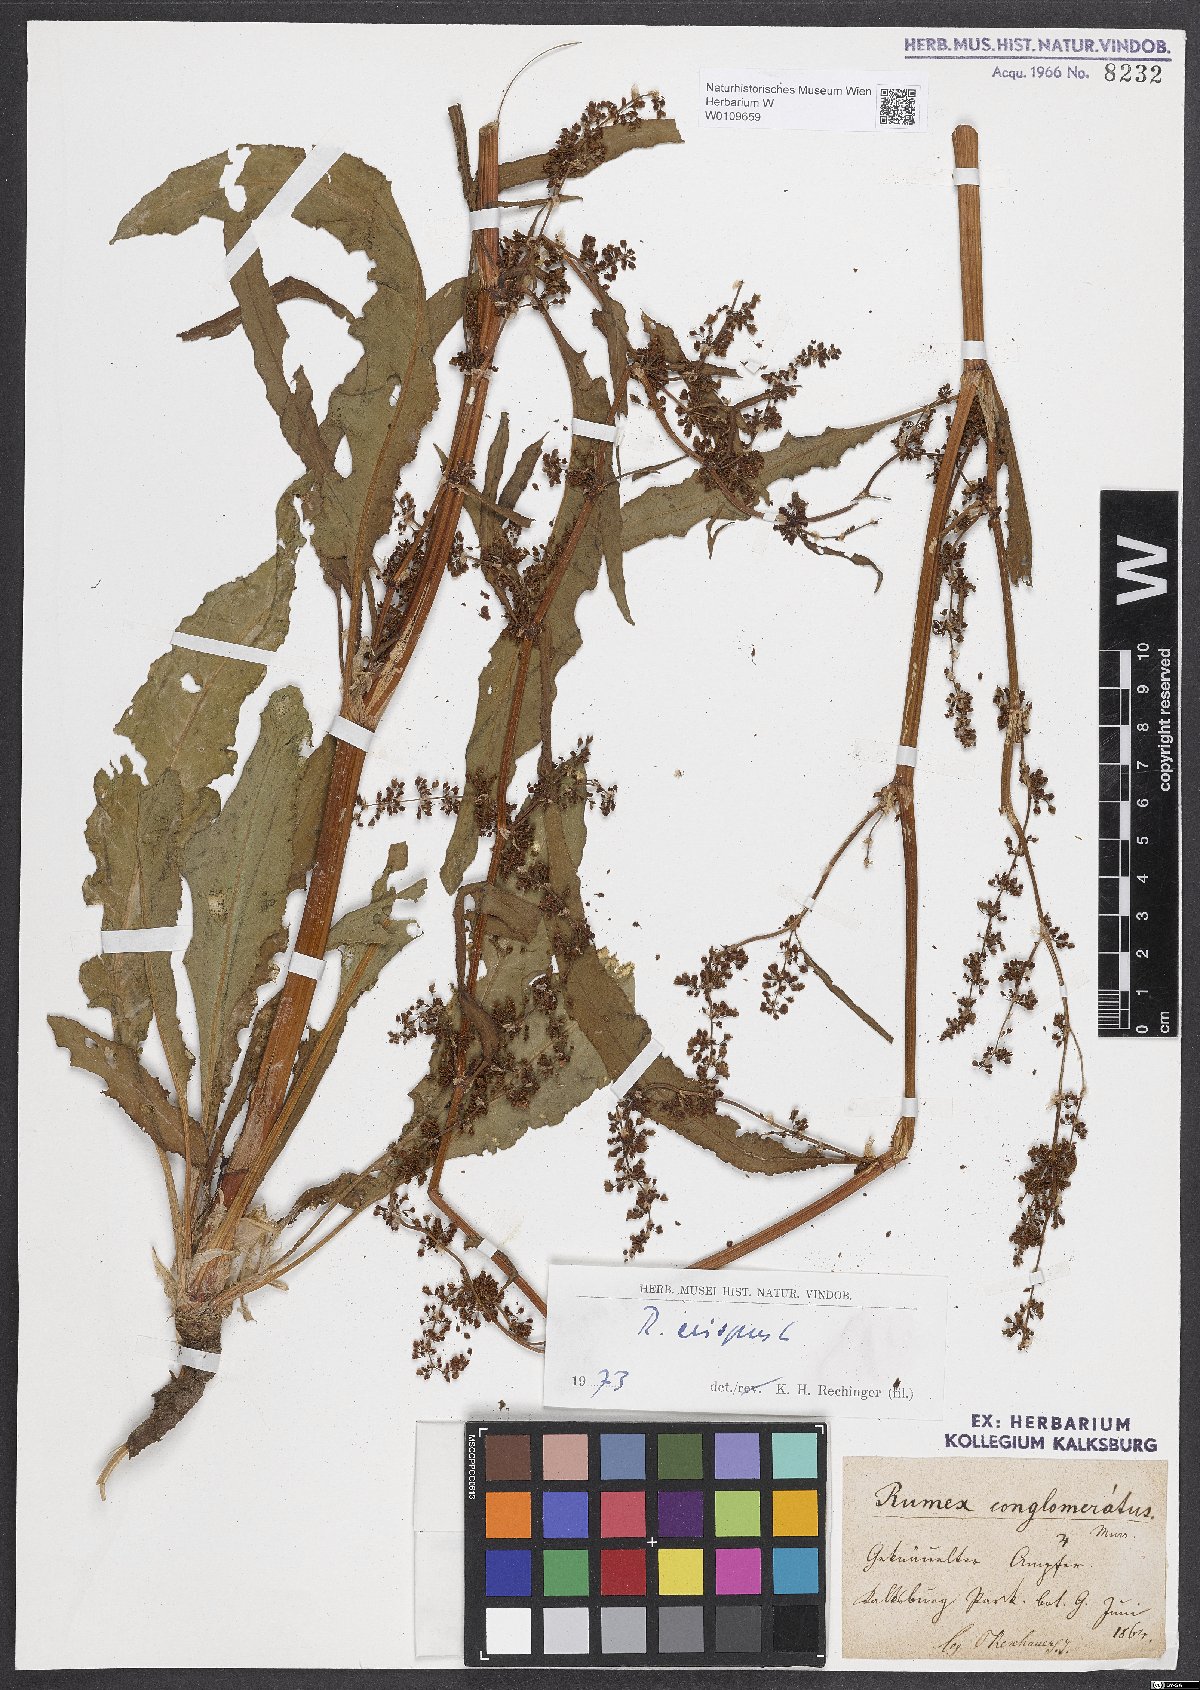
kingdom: Plantae
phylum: Tracheophyta
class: Magnoliopsida
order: Caryophyllales
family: Polygonaceae
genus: Rumex
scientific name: Rumex crispus
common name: Curled dock
